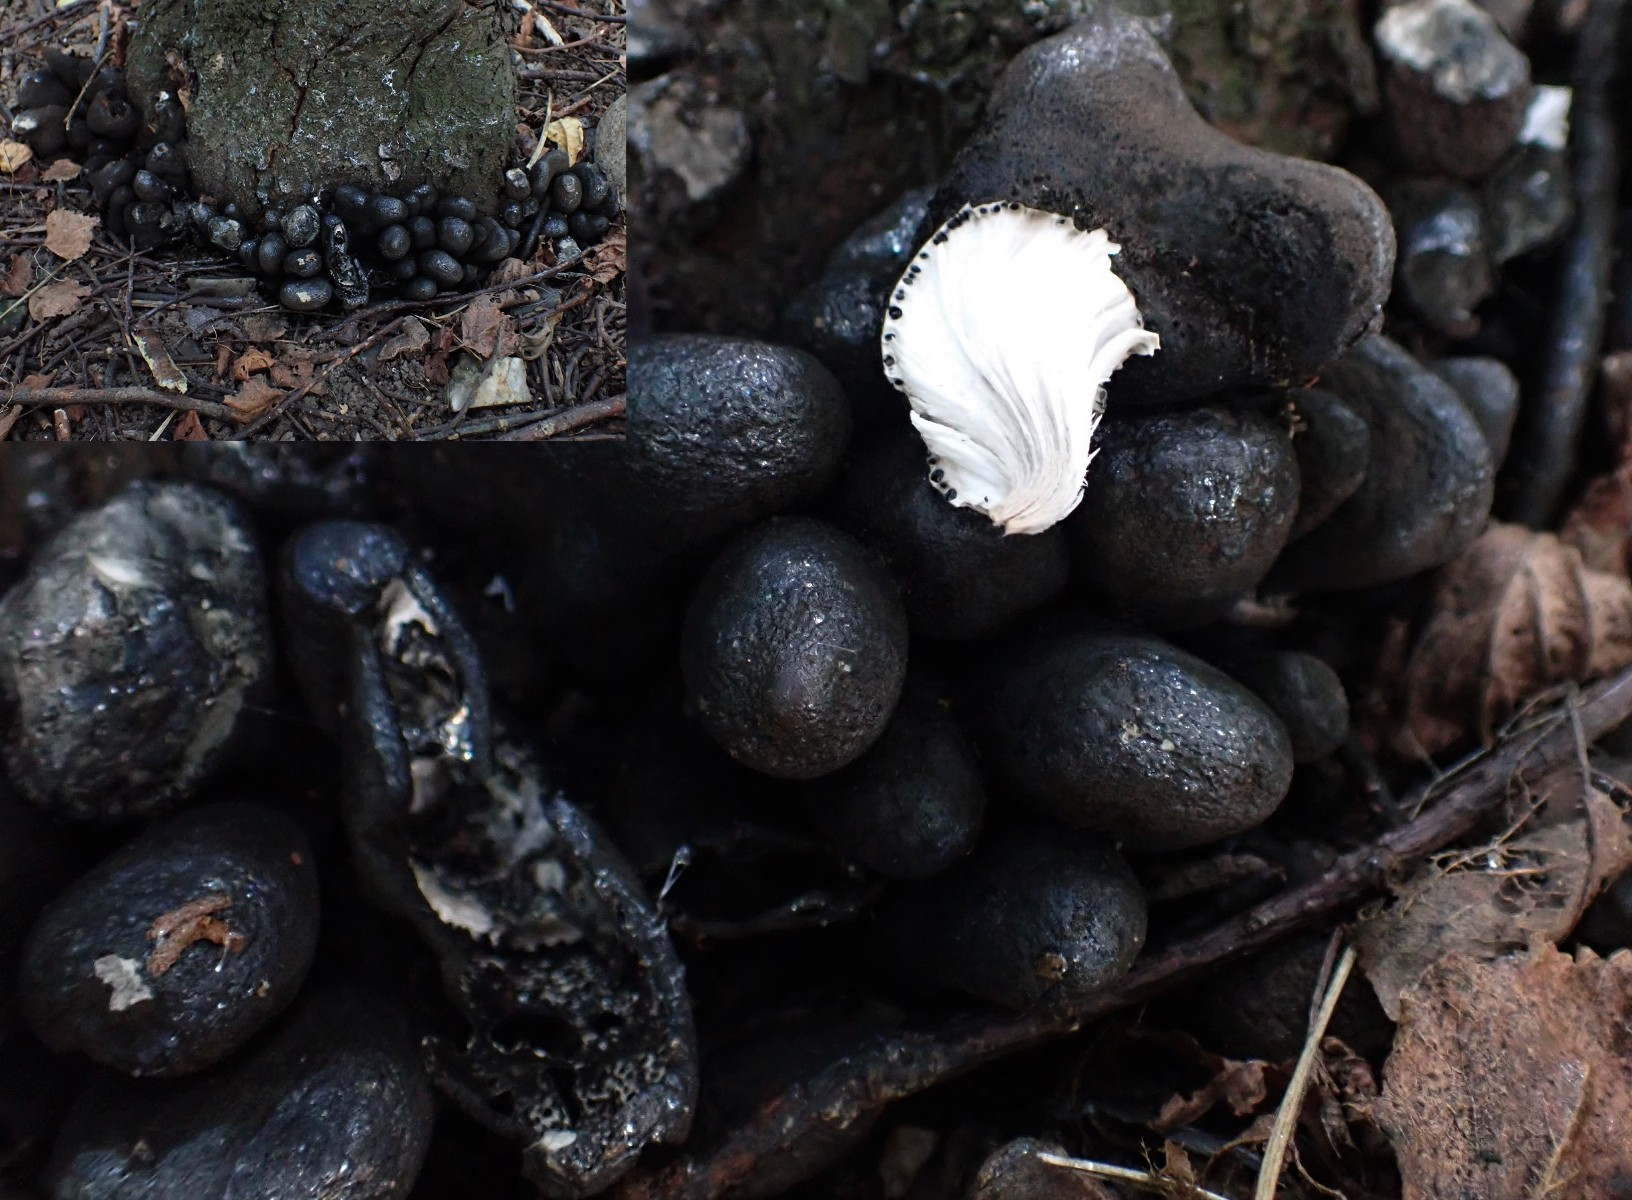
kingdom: Fungi
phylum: Ascomycota
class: Sordariomycetes
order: Xylariales
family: Xylariaceae
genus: Xylaria
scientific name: Xylaria polymorpha
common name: kølle-stødsvamp
